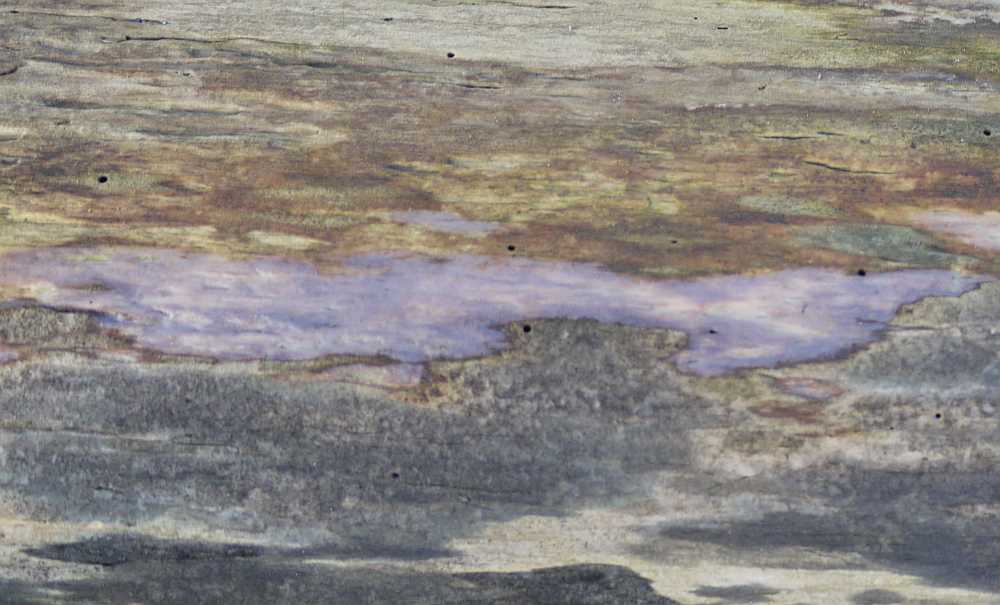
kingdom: Fungi
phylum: Basidiomycota
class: Tremellomycetes
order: Tremellales
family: Exidiaceae
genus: Exidiopsis
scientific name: Exidiopsis effusa
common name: smuk bævrehinde
